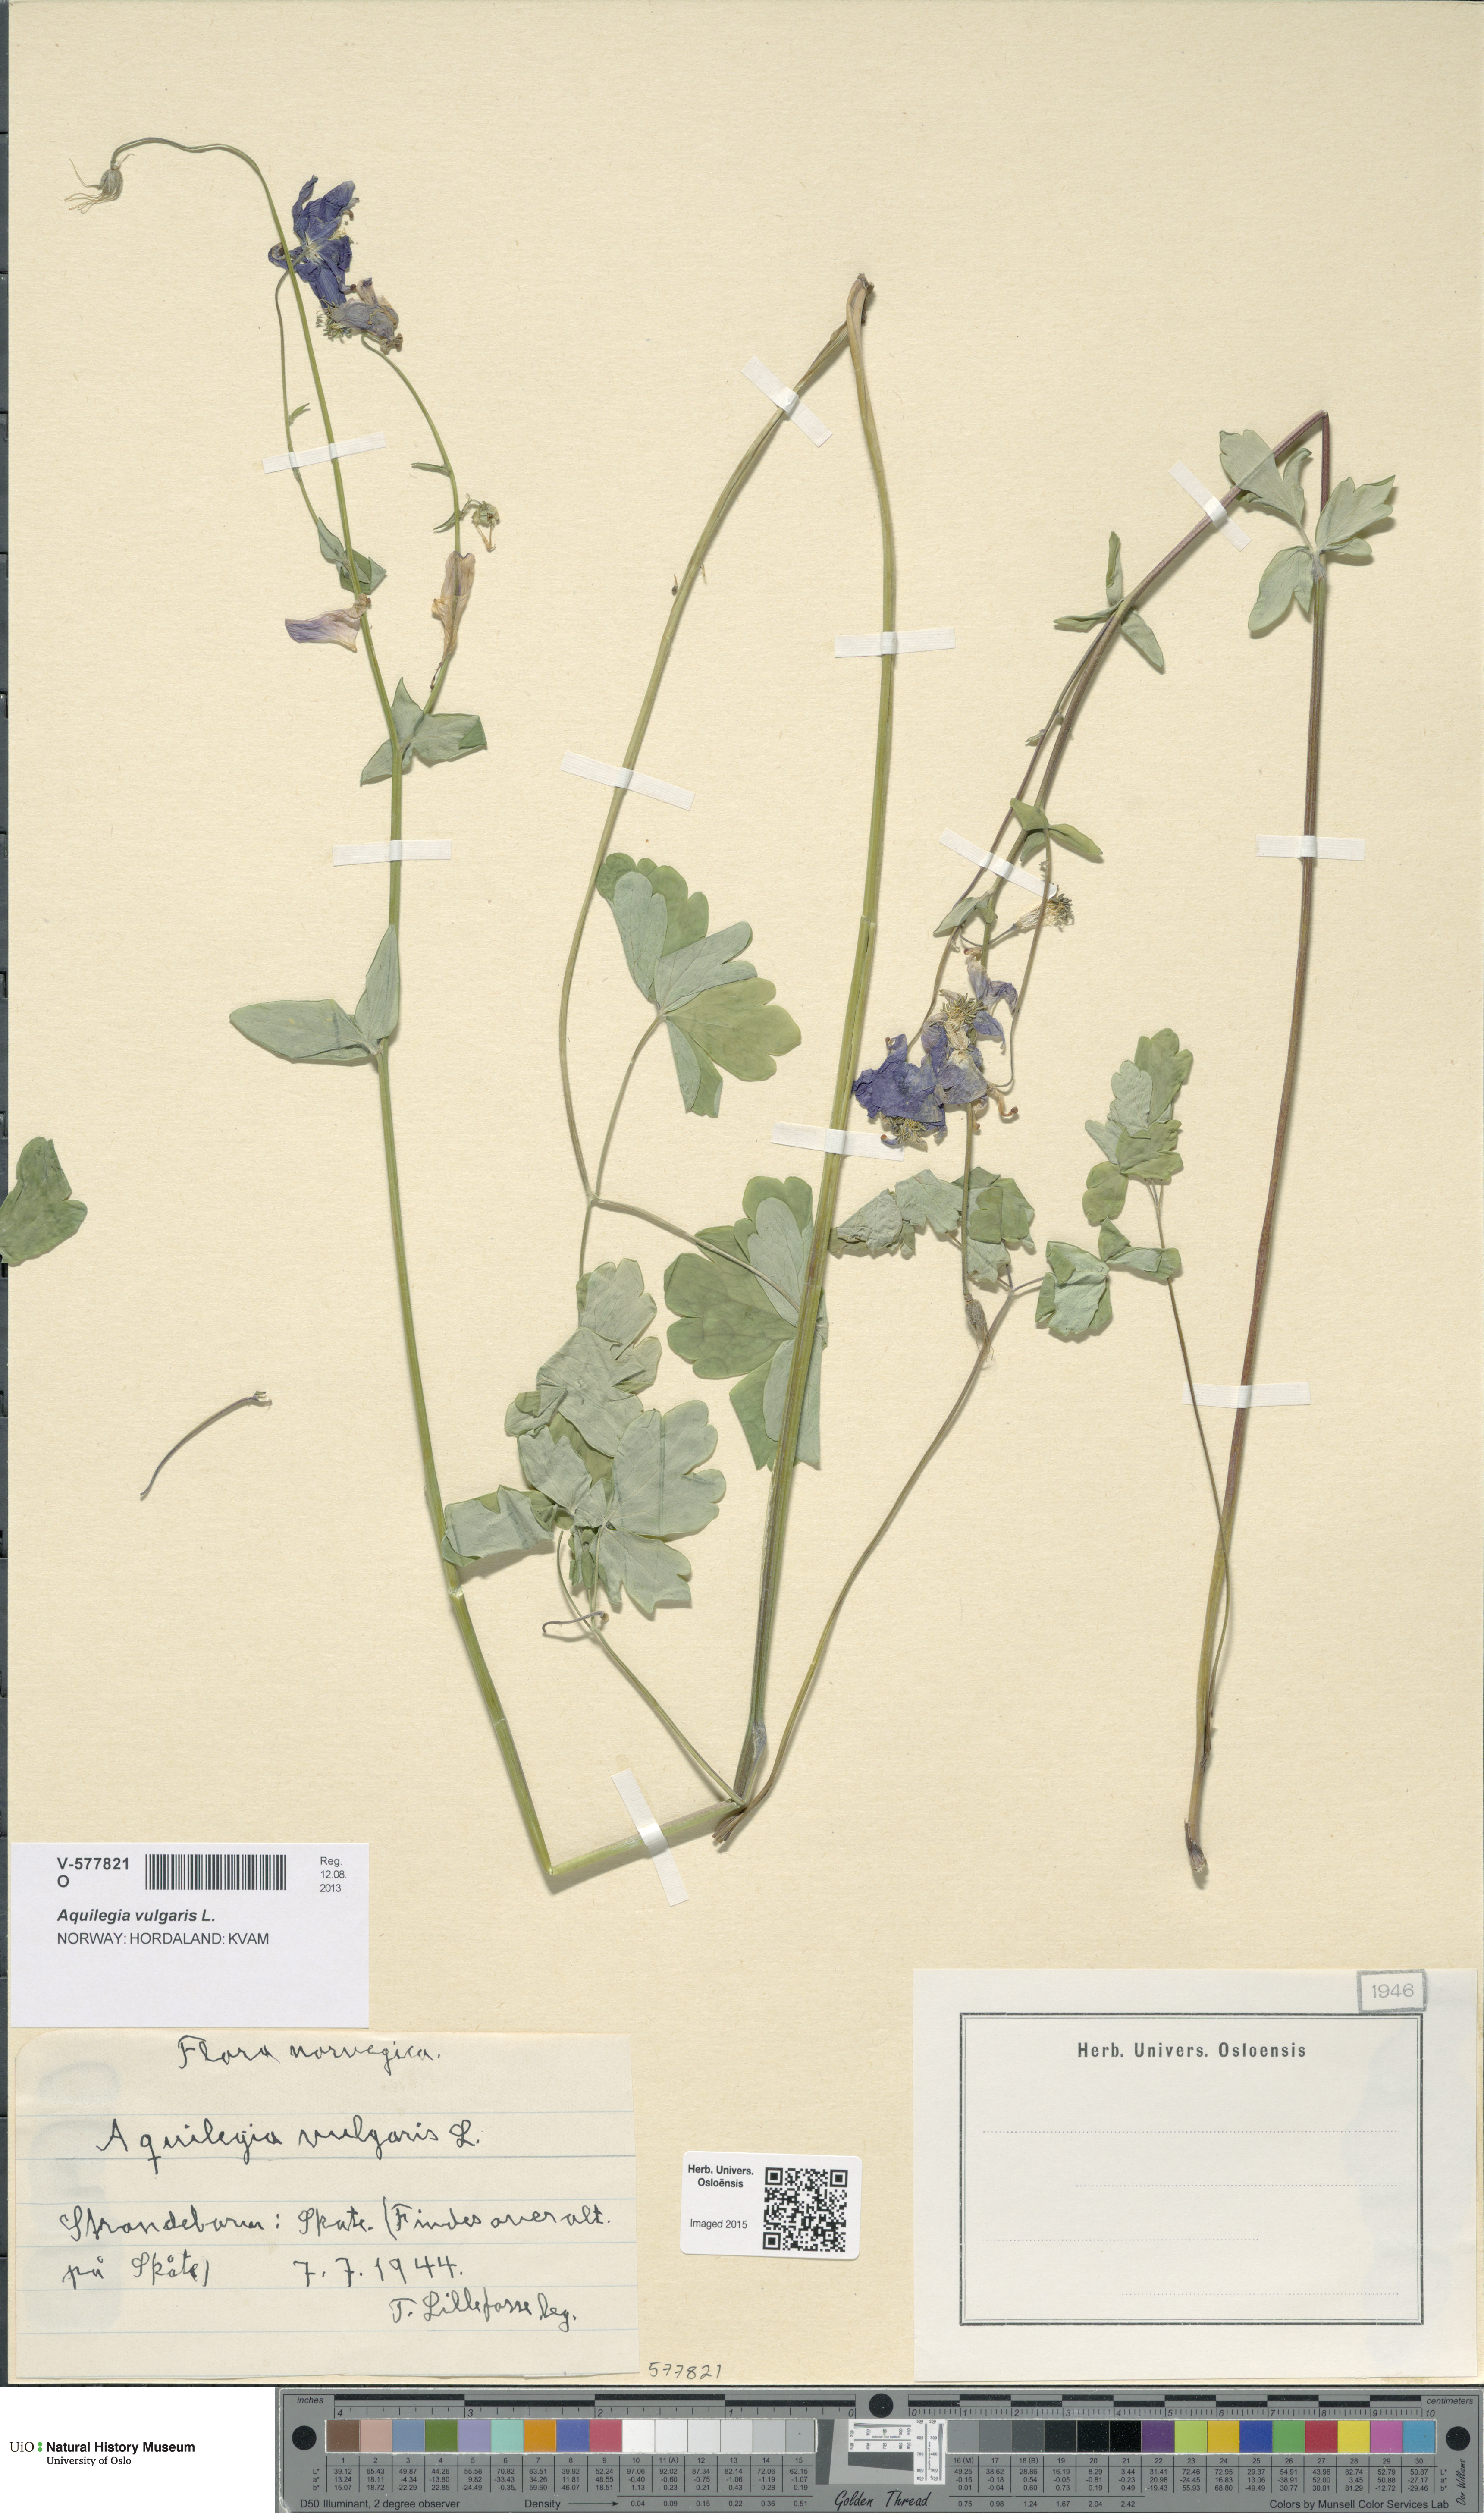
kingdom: Plantae
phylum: Tracheophyta
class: Magnoliopsida
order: Ranunculales
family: Ranunculaceae
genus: Aquilegia
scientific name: Aquilegia vulgaris
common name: Columbine
